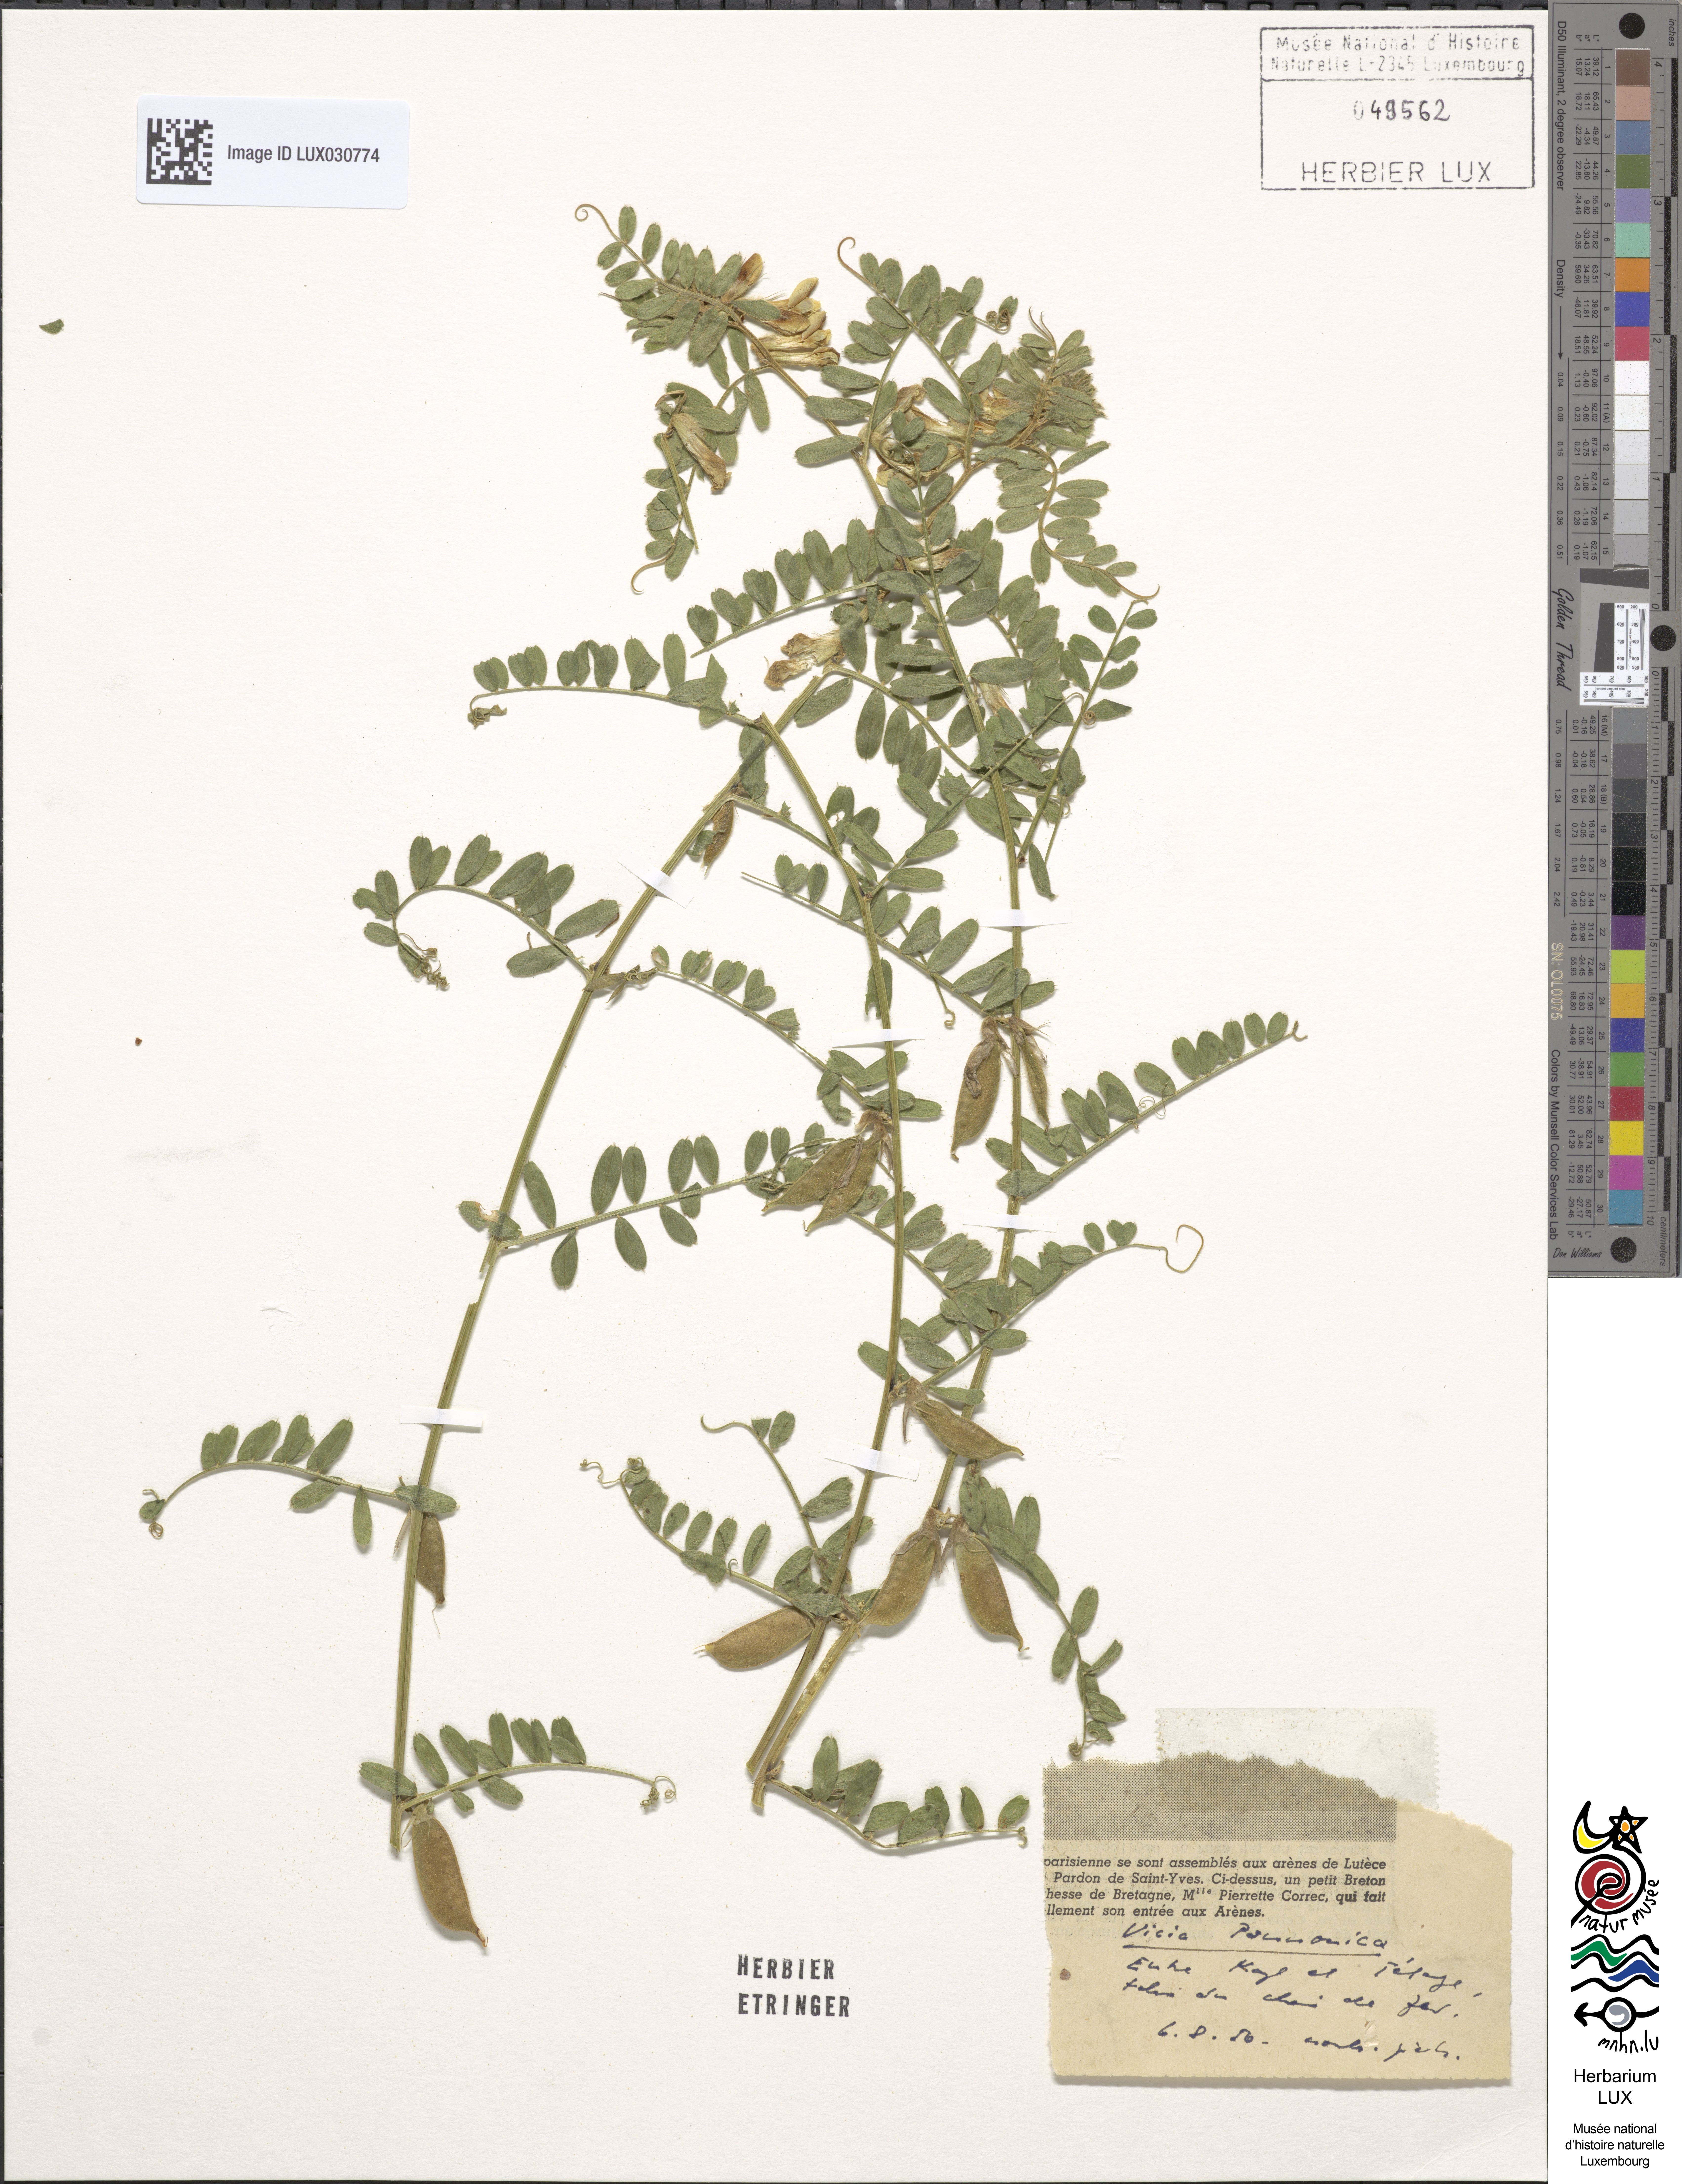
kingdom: Plantae
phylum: Tracheophyta
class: Magnoliopsida
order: Fabales
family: Fabaceae
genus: Vicia
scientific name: Vicia pannonica
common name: Hungarian vetch
